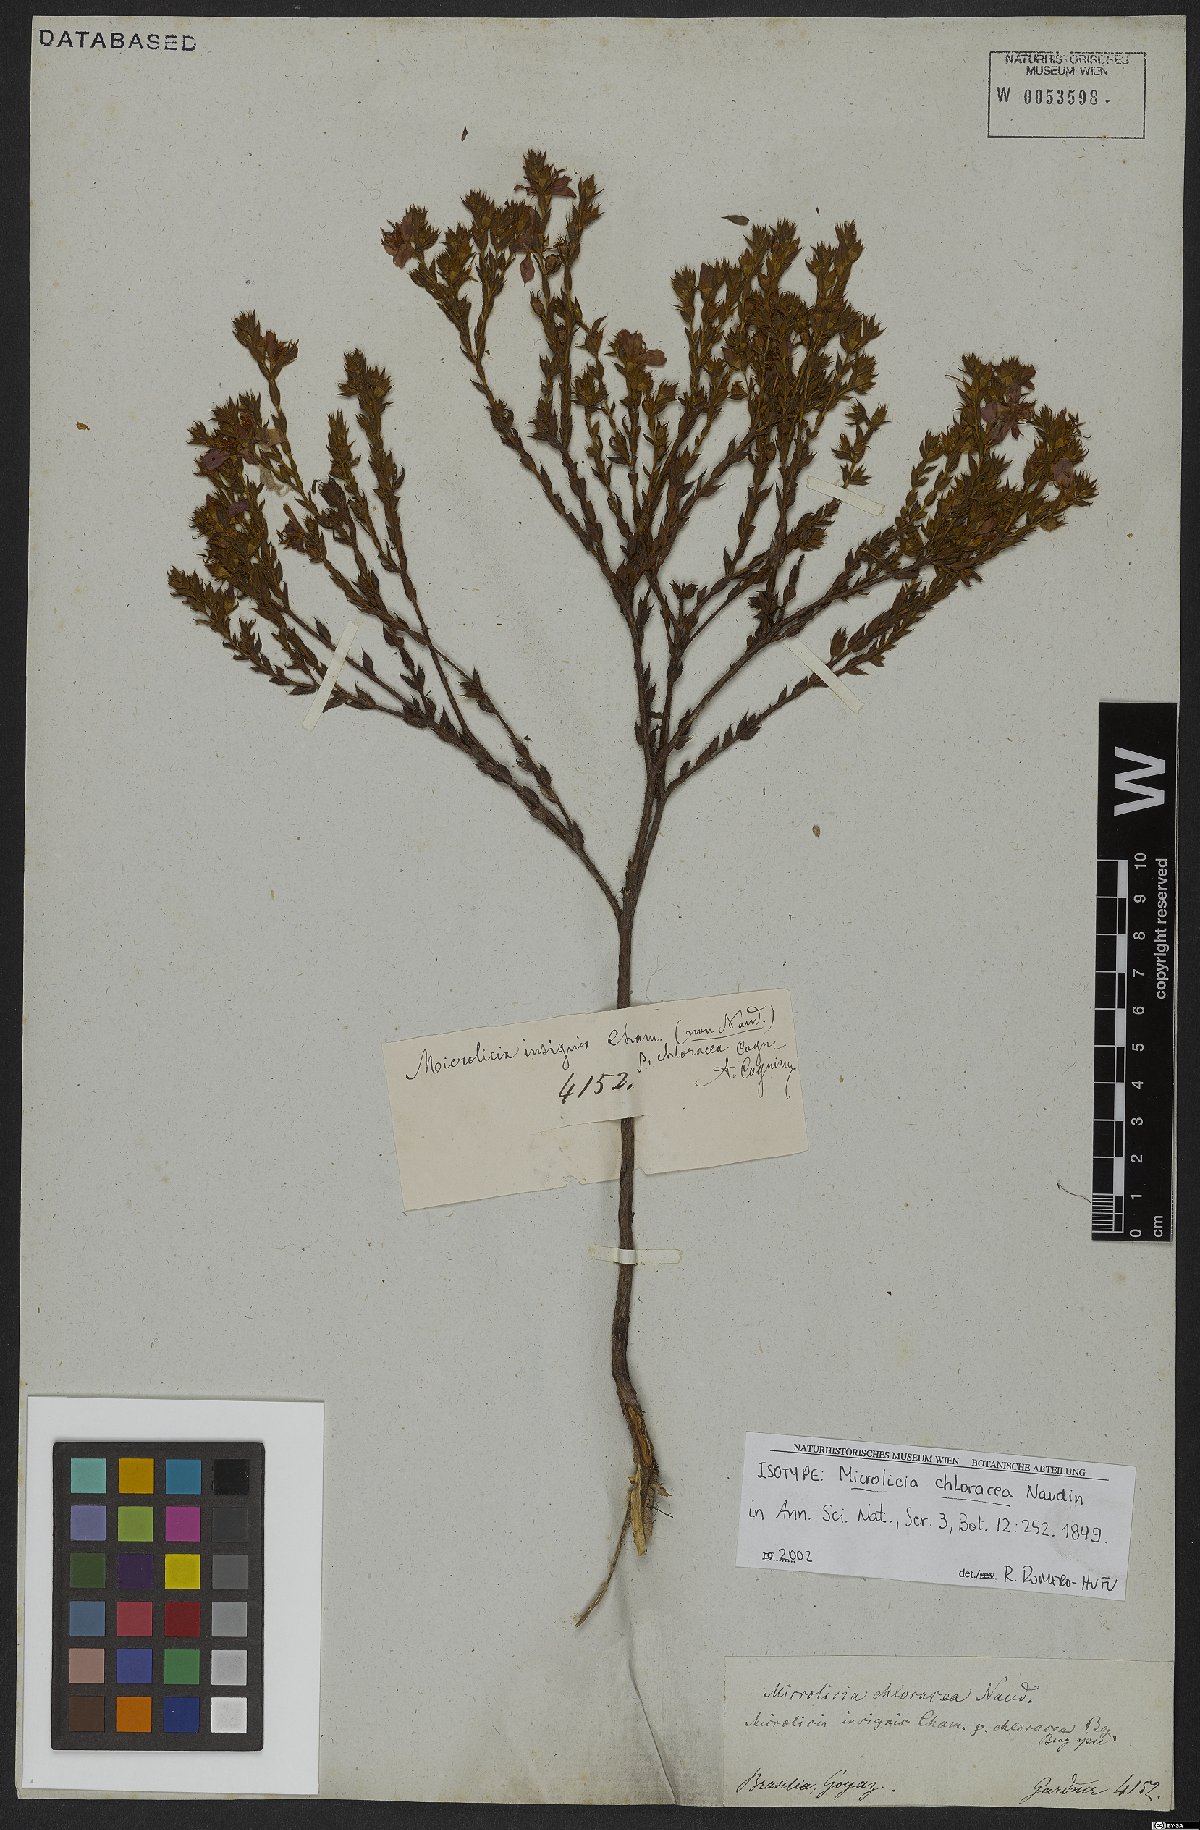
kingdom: Plantae
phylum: Tracheophyta
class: Magnoliopsida
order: Myrtales
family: Melastomataceae
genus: Microlicia
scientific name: Microlicia insignis
